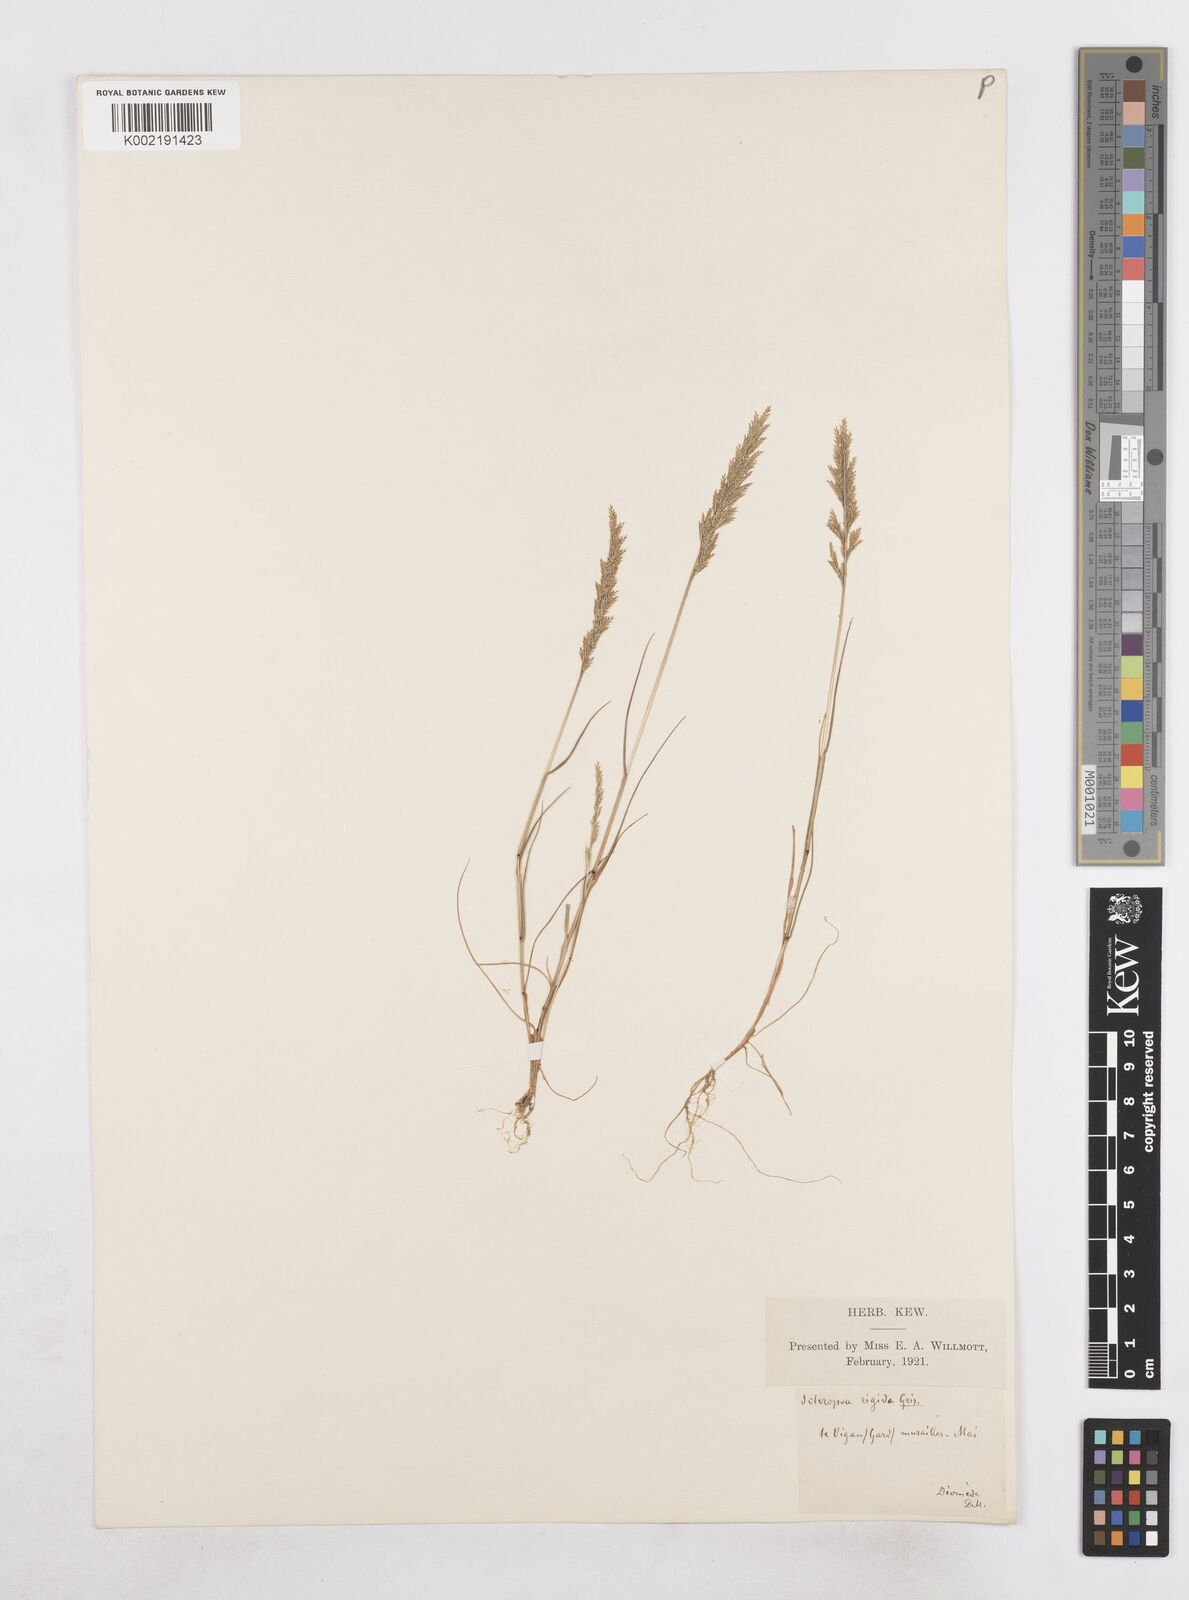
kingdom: Plantae
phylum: Tracheophyta
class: Liliopsida
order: Poales
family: Poaceae
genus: Catapodium
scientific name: Catapodium rigidum
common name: Fern-grass
